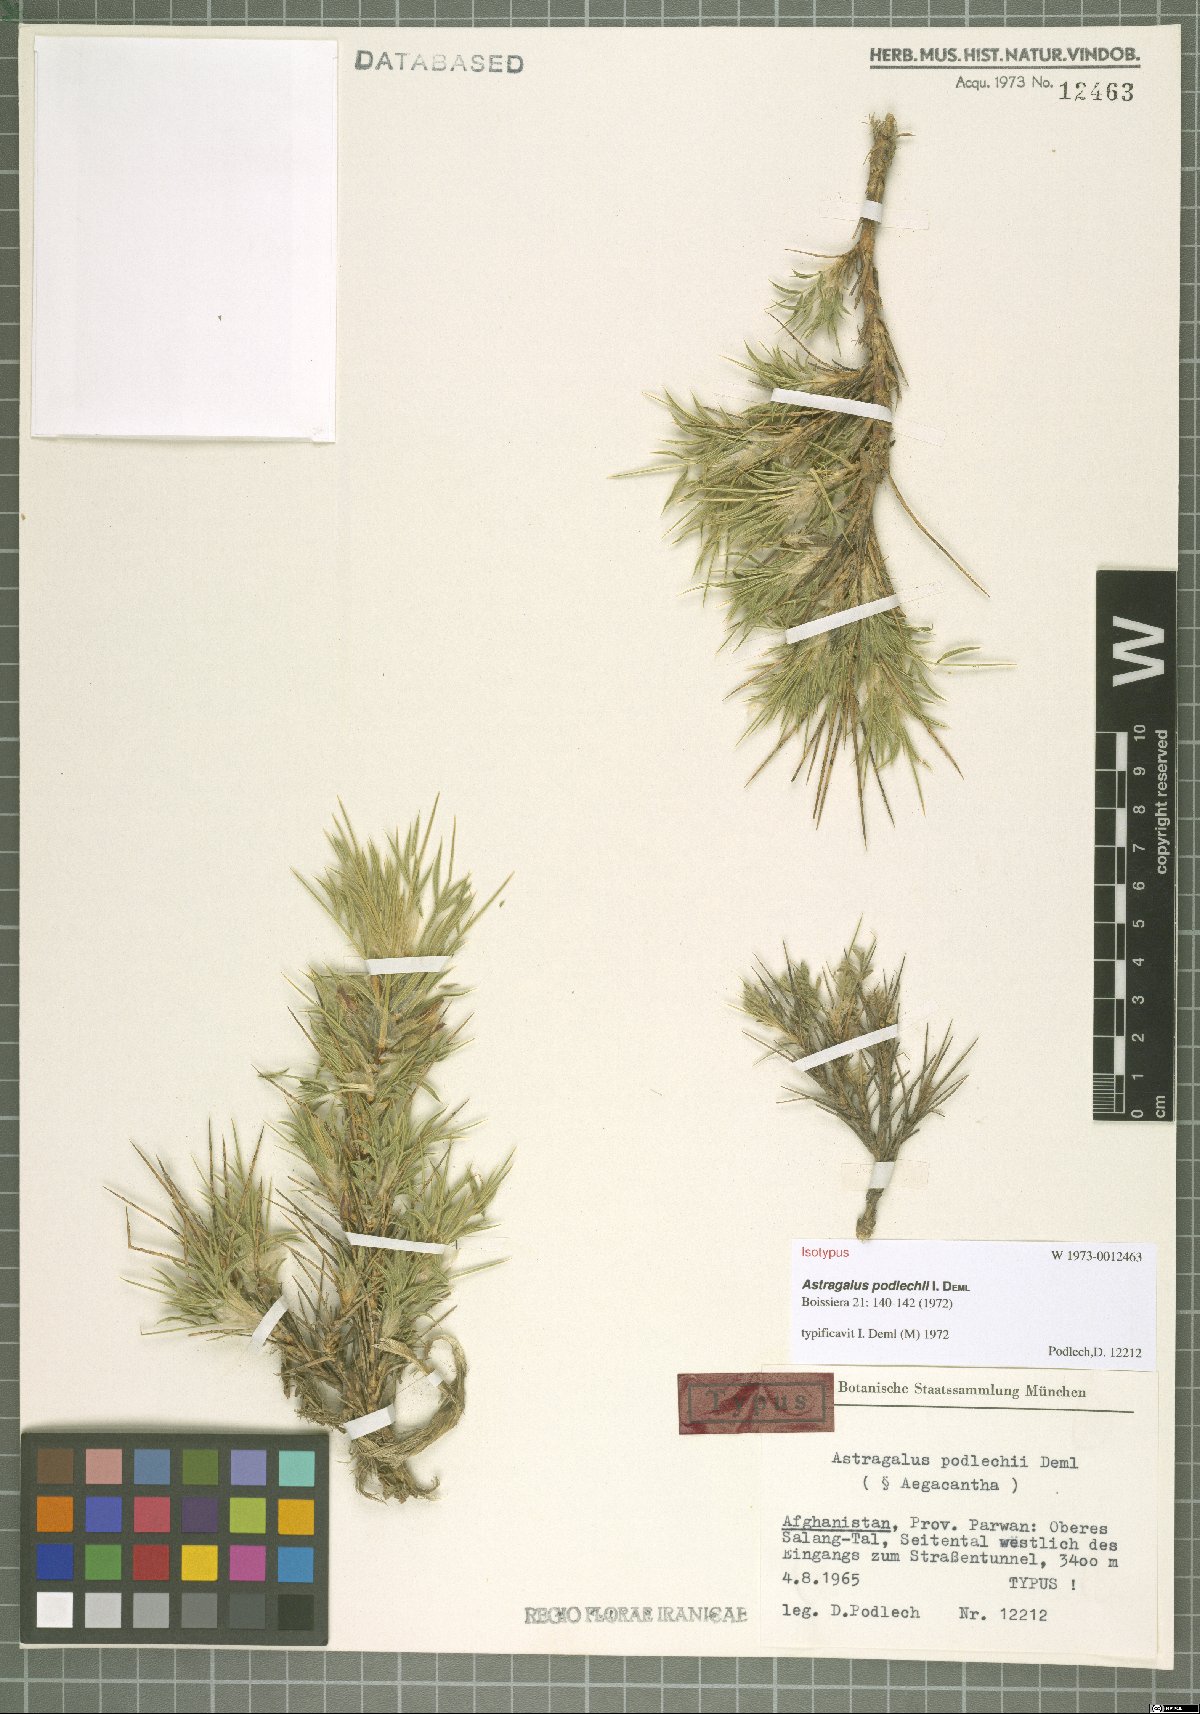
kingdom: Plantae
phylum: Tracheophyta
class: Magnoliopsida
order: Fabales
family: Fabaceae
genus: Astragalus
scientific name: Astragalus podlechii
